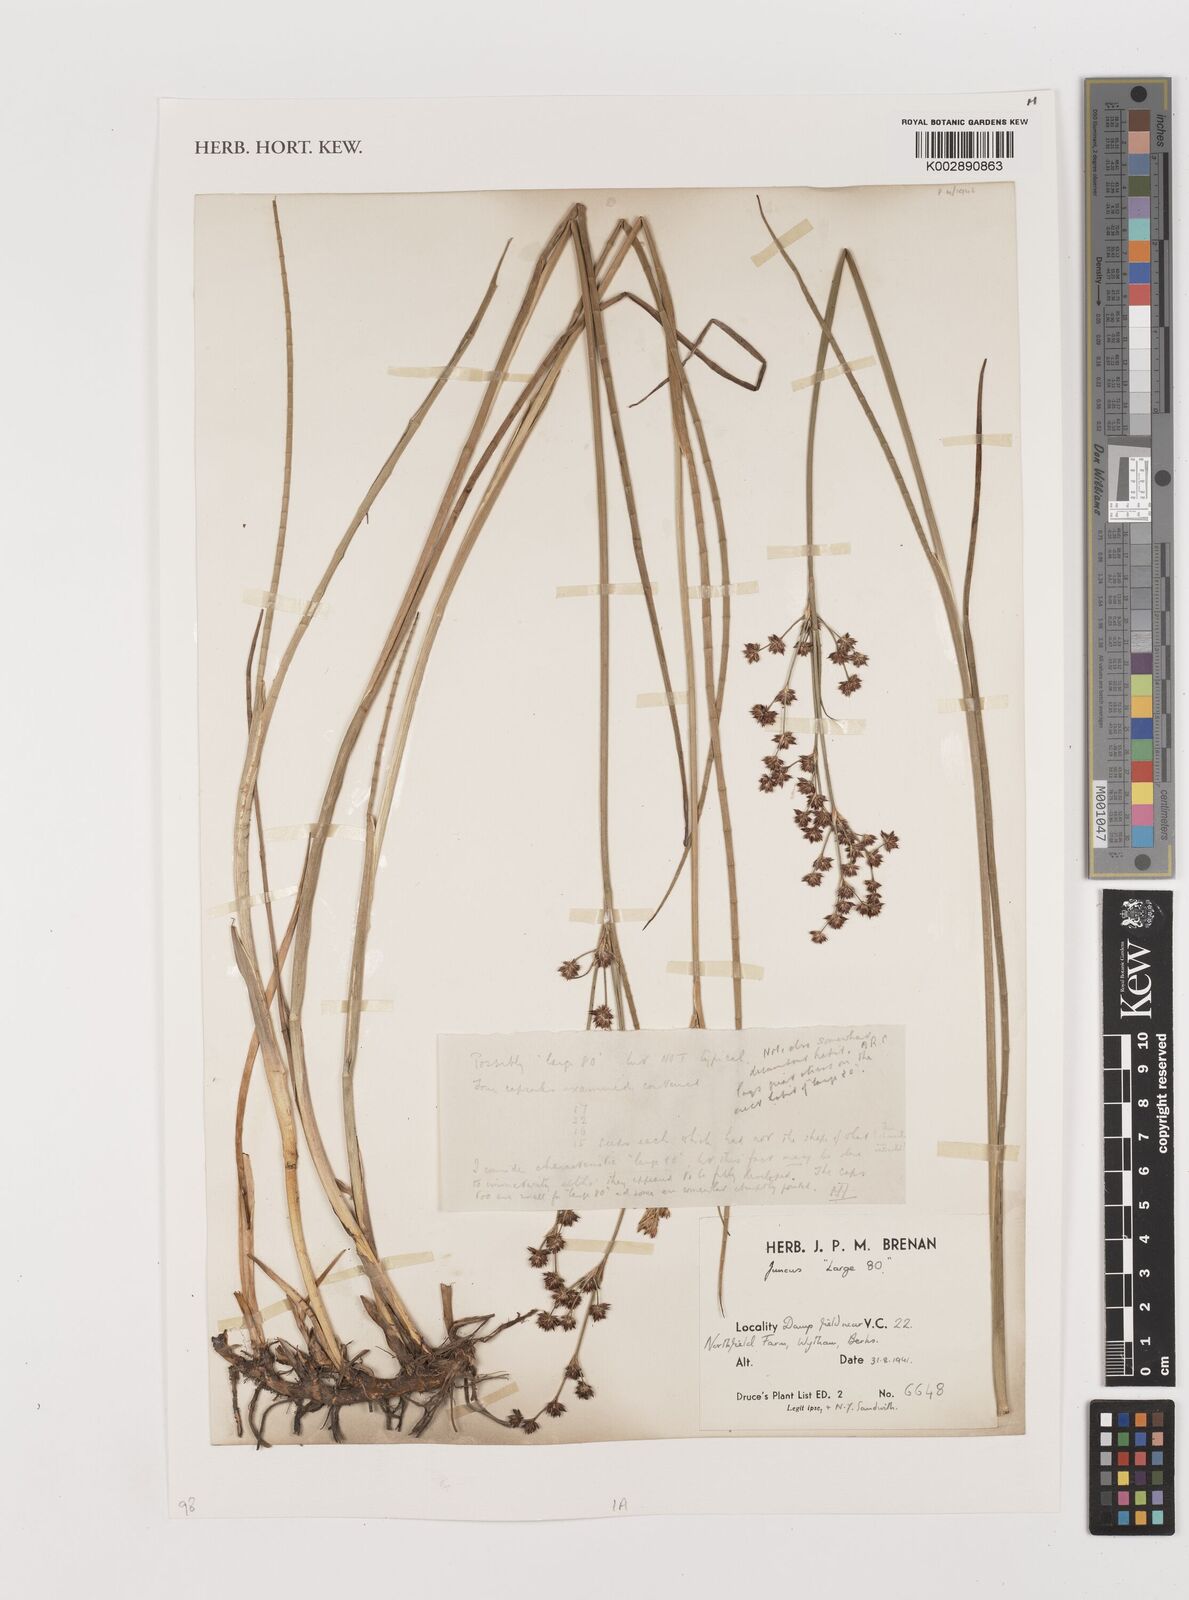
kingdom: Plantae
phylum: Tracheophyta
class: Liliopsida
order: Poales
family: Juncaceae
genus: Juncus
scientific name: Juncus
